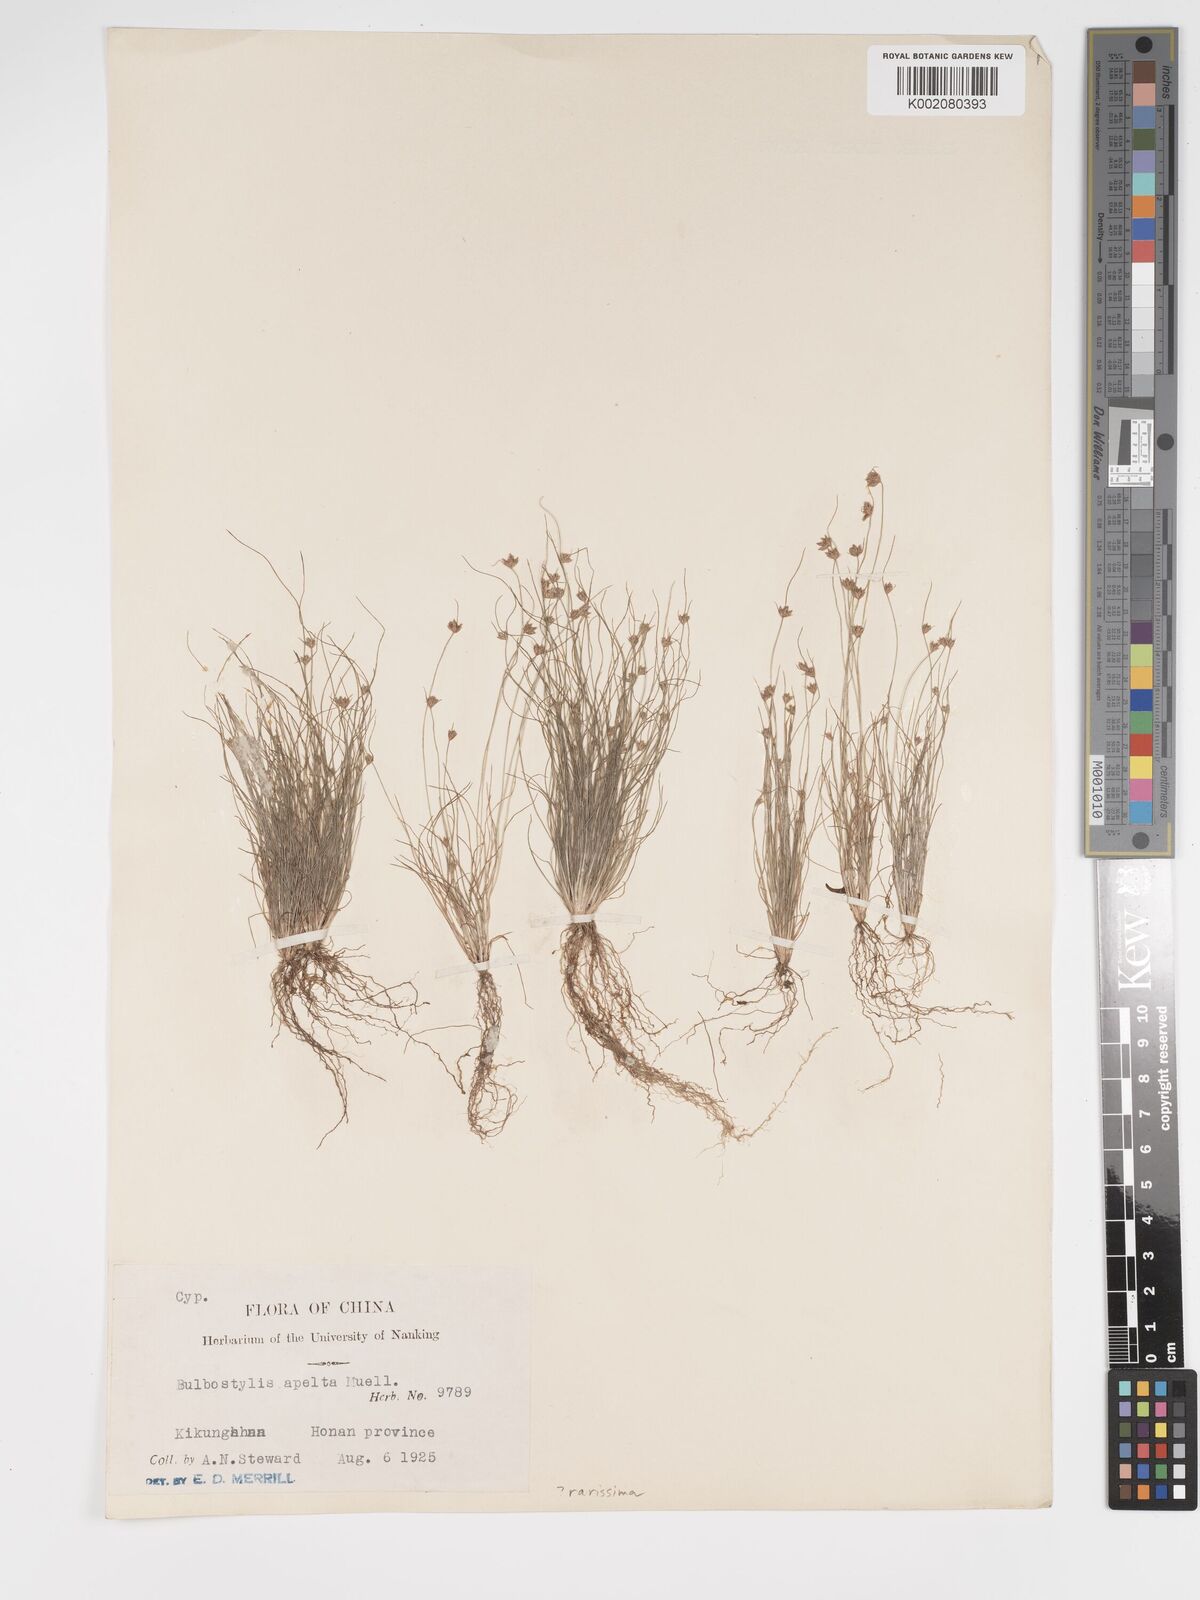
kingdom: Plantae
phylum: Tracheophyta
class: Liliopsida
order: Poales
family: Cyperaceae
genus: Bulbostylis
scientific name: Bulbostylis rarissima
